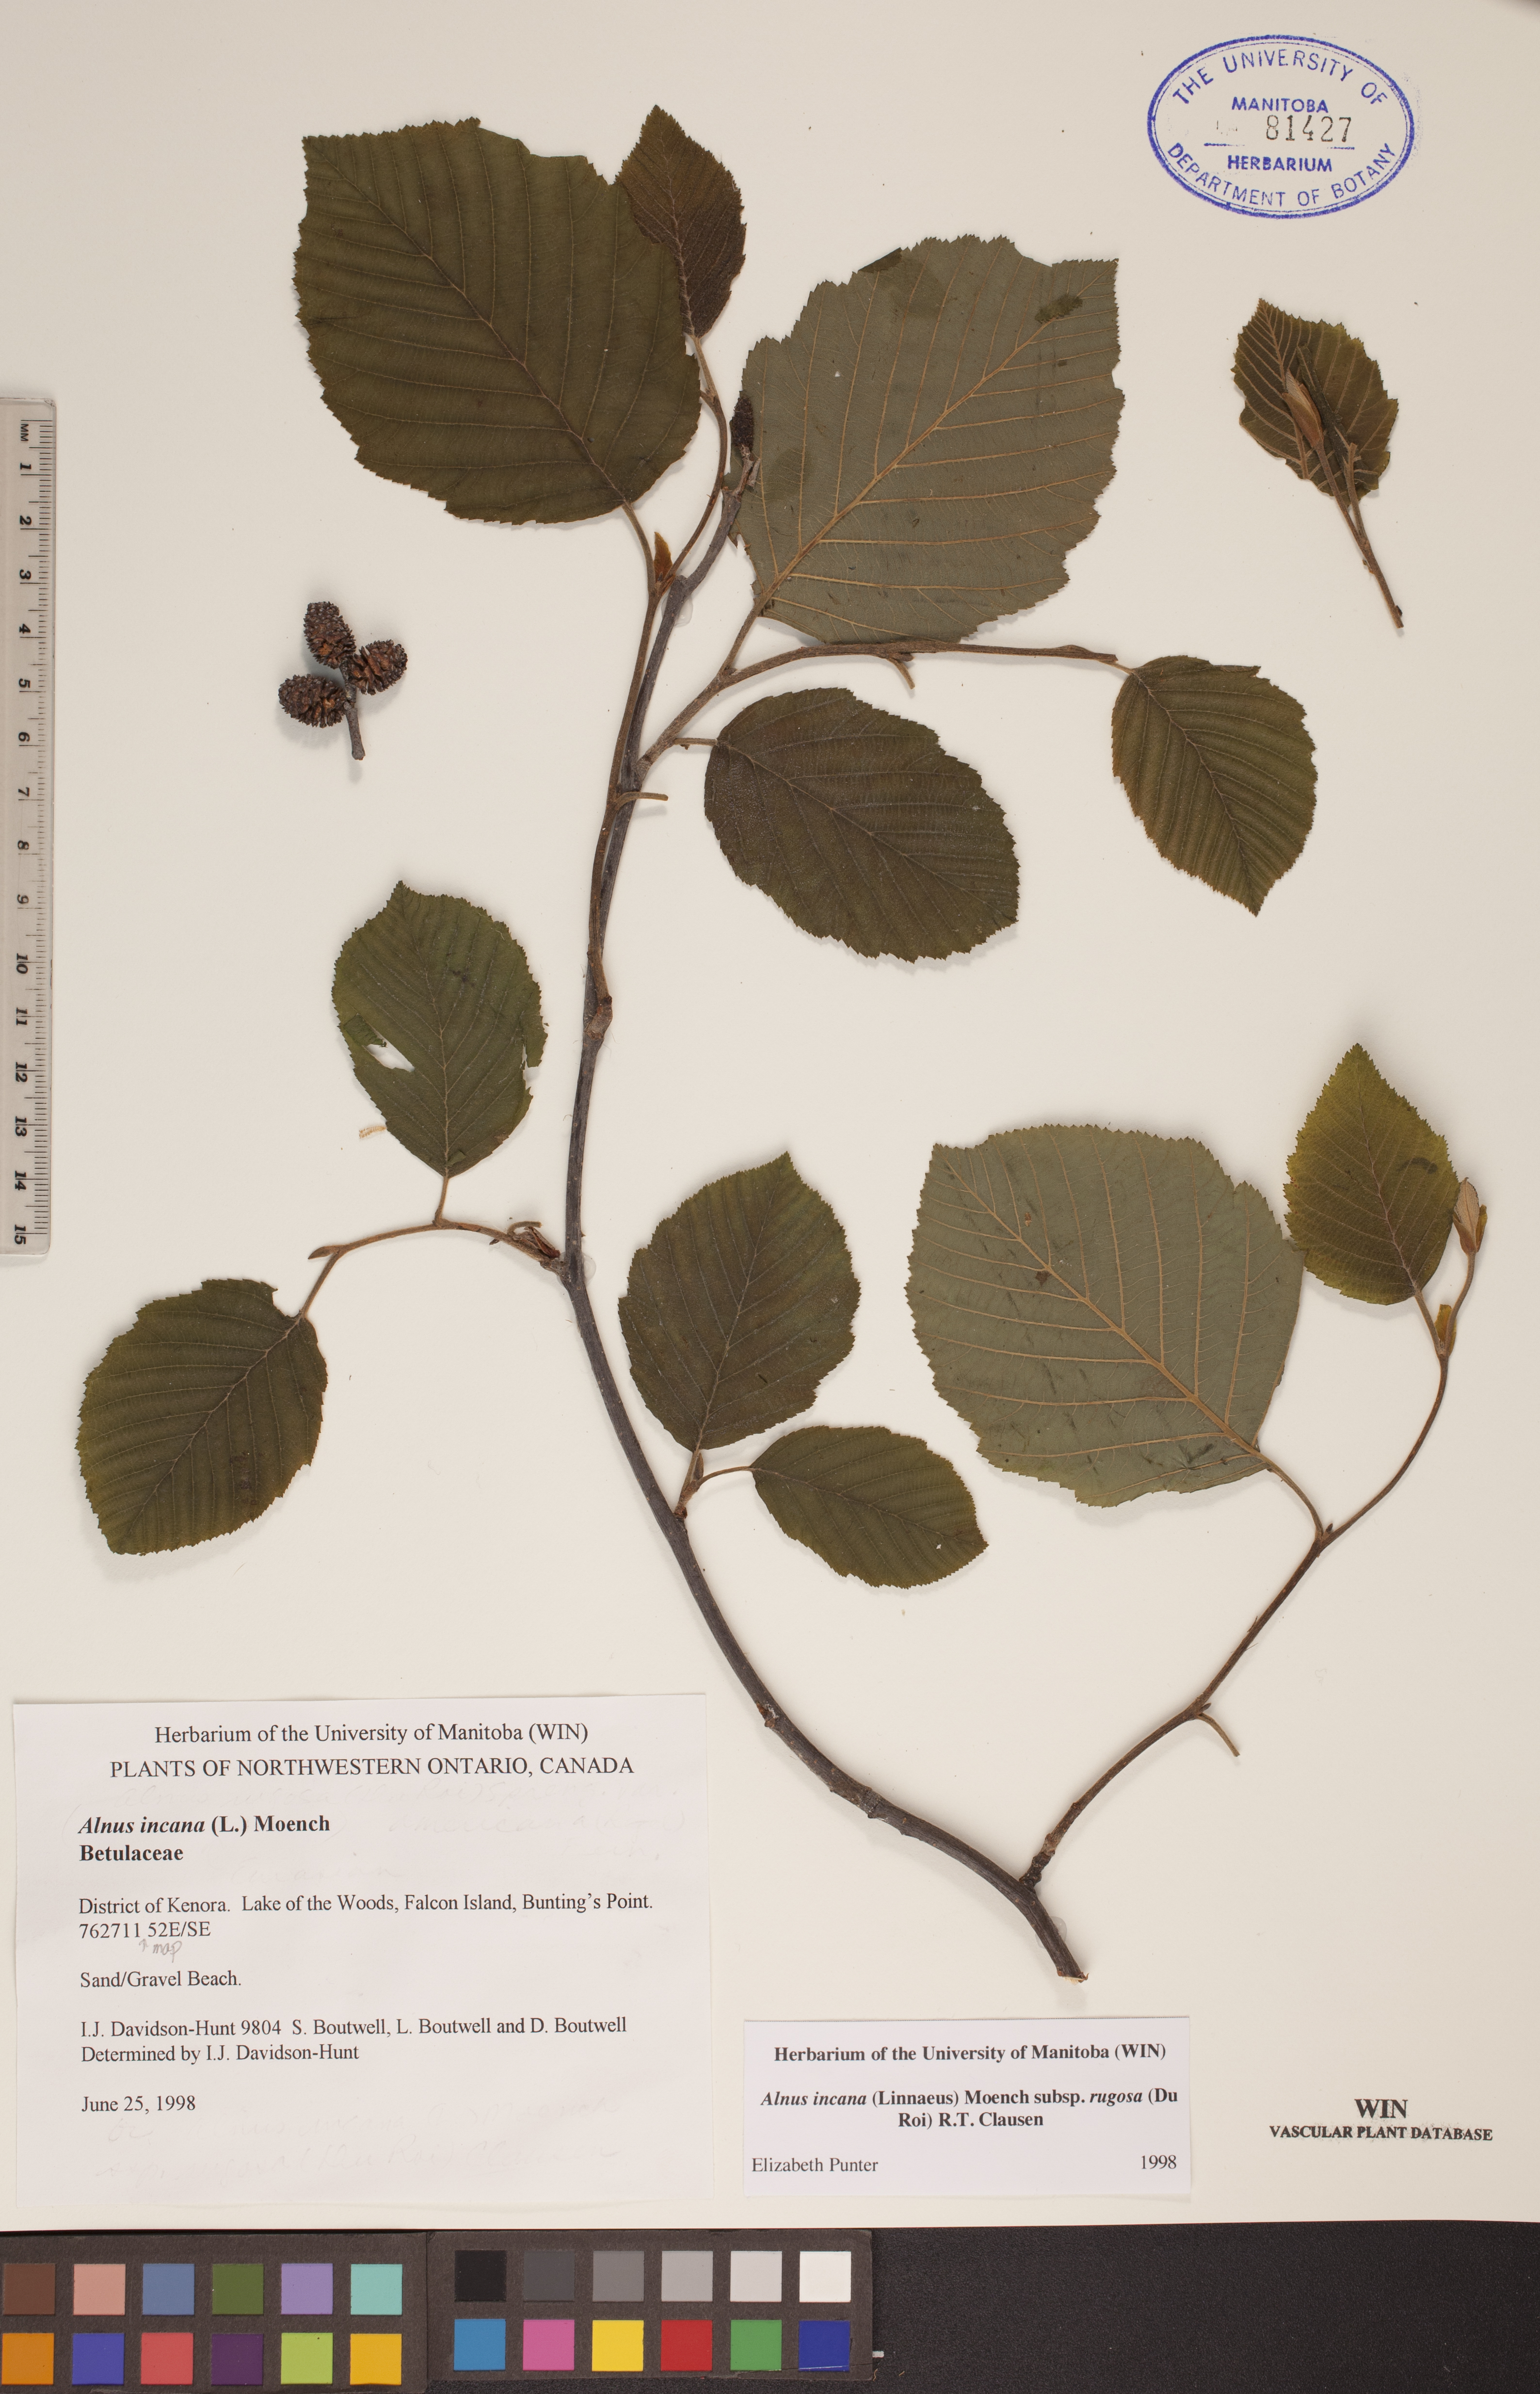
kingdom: Plantae
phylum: Tracheophyta
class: Magnoliopsida
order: Fagales
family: Betulaceae
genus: Alnus
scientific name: Alnus incana
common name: Grey alder
